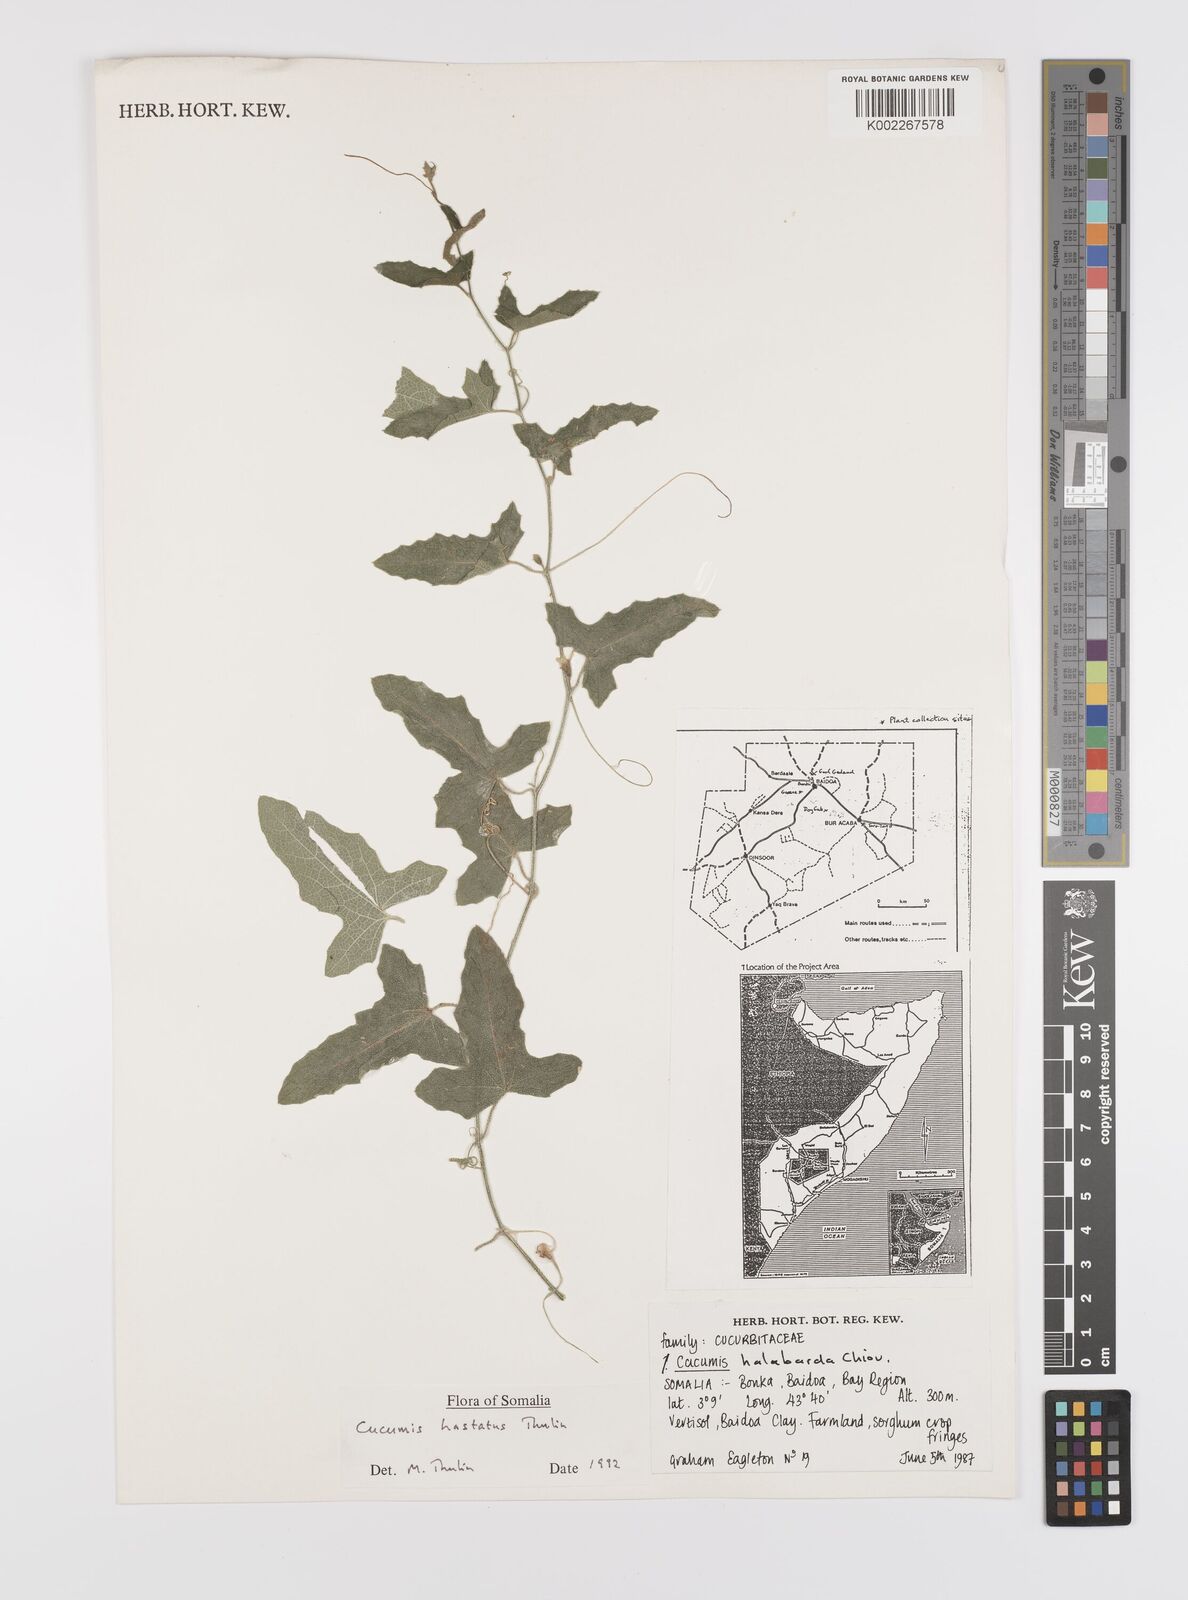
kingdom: Plantae
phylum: Tracheophyta
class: Magnoliopsida
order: Cucurbitales
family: Cucurbitaceae
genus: Cucumis
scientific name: Cucumis hastatus
